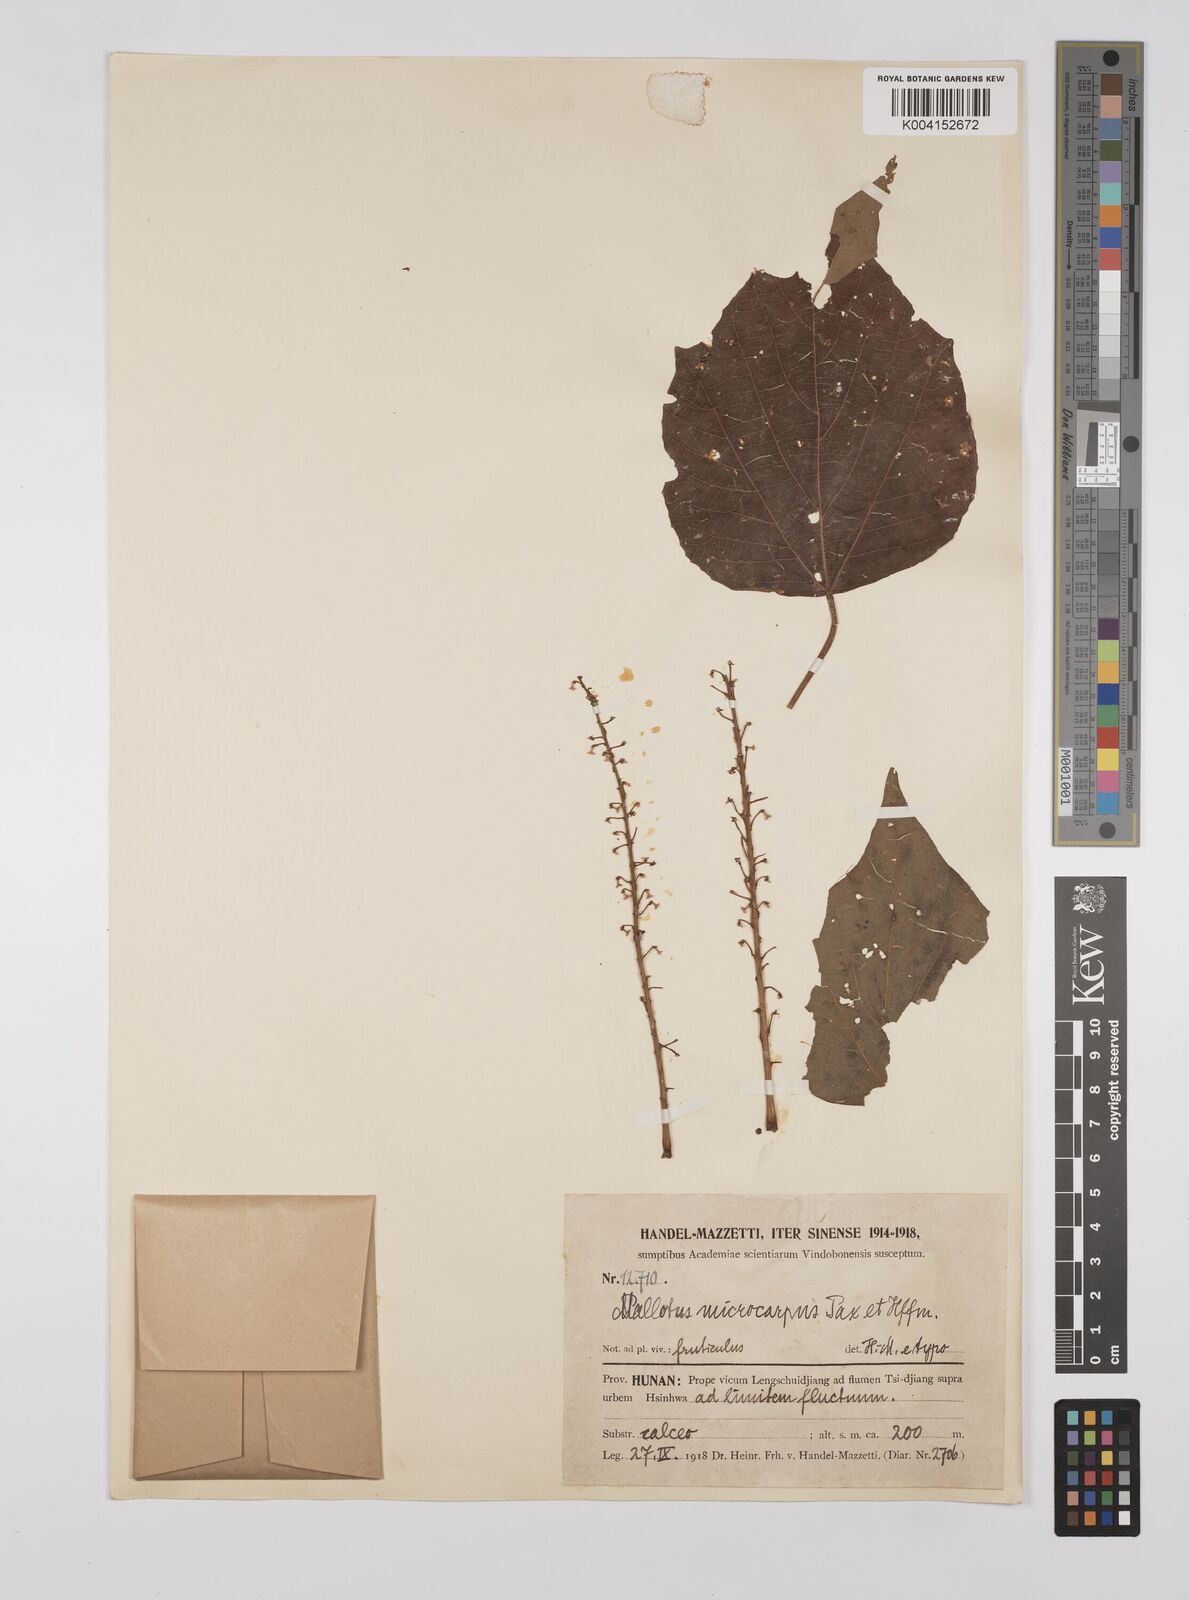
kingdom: Plantae
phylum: Tracheophyta
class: Magnoliopsida
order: Malpighiales
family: Euphorbiaceae
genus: Mallotus
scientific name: Mallotus microcarpus
